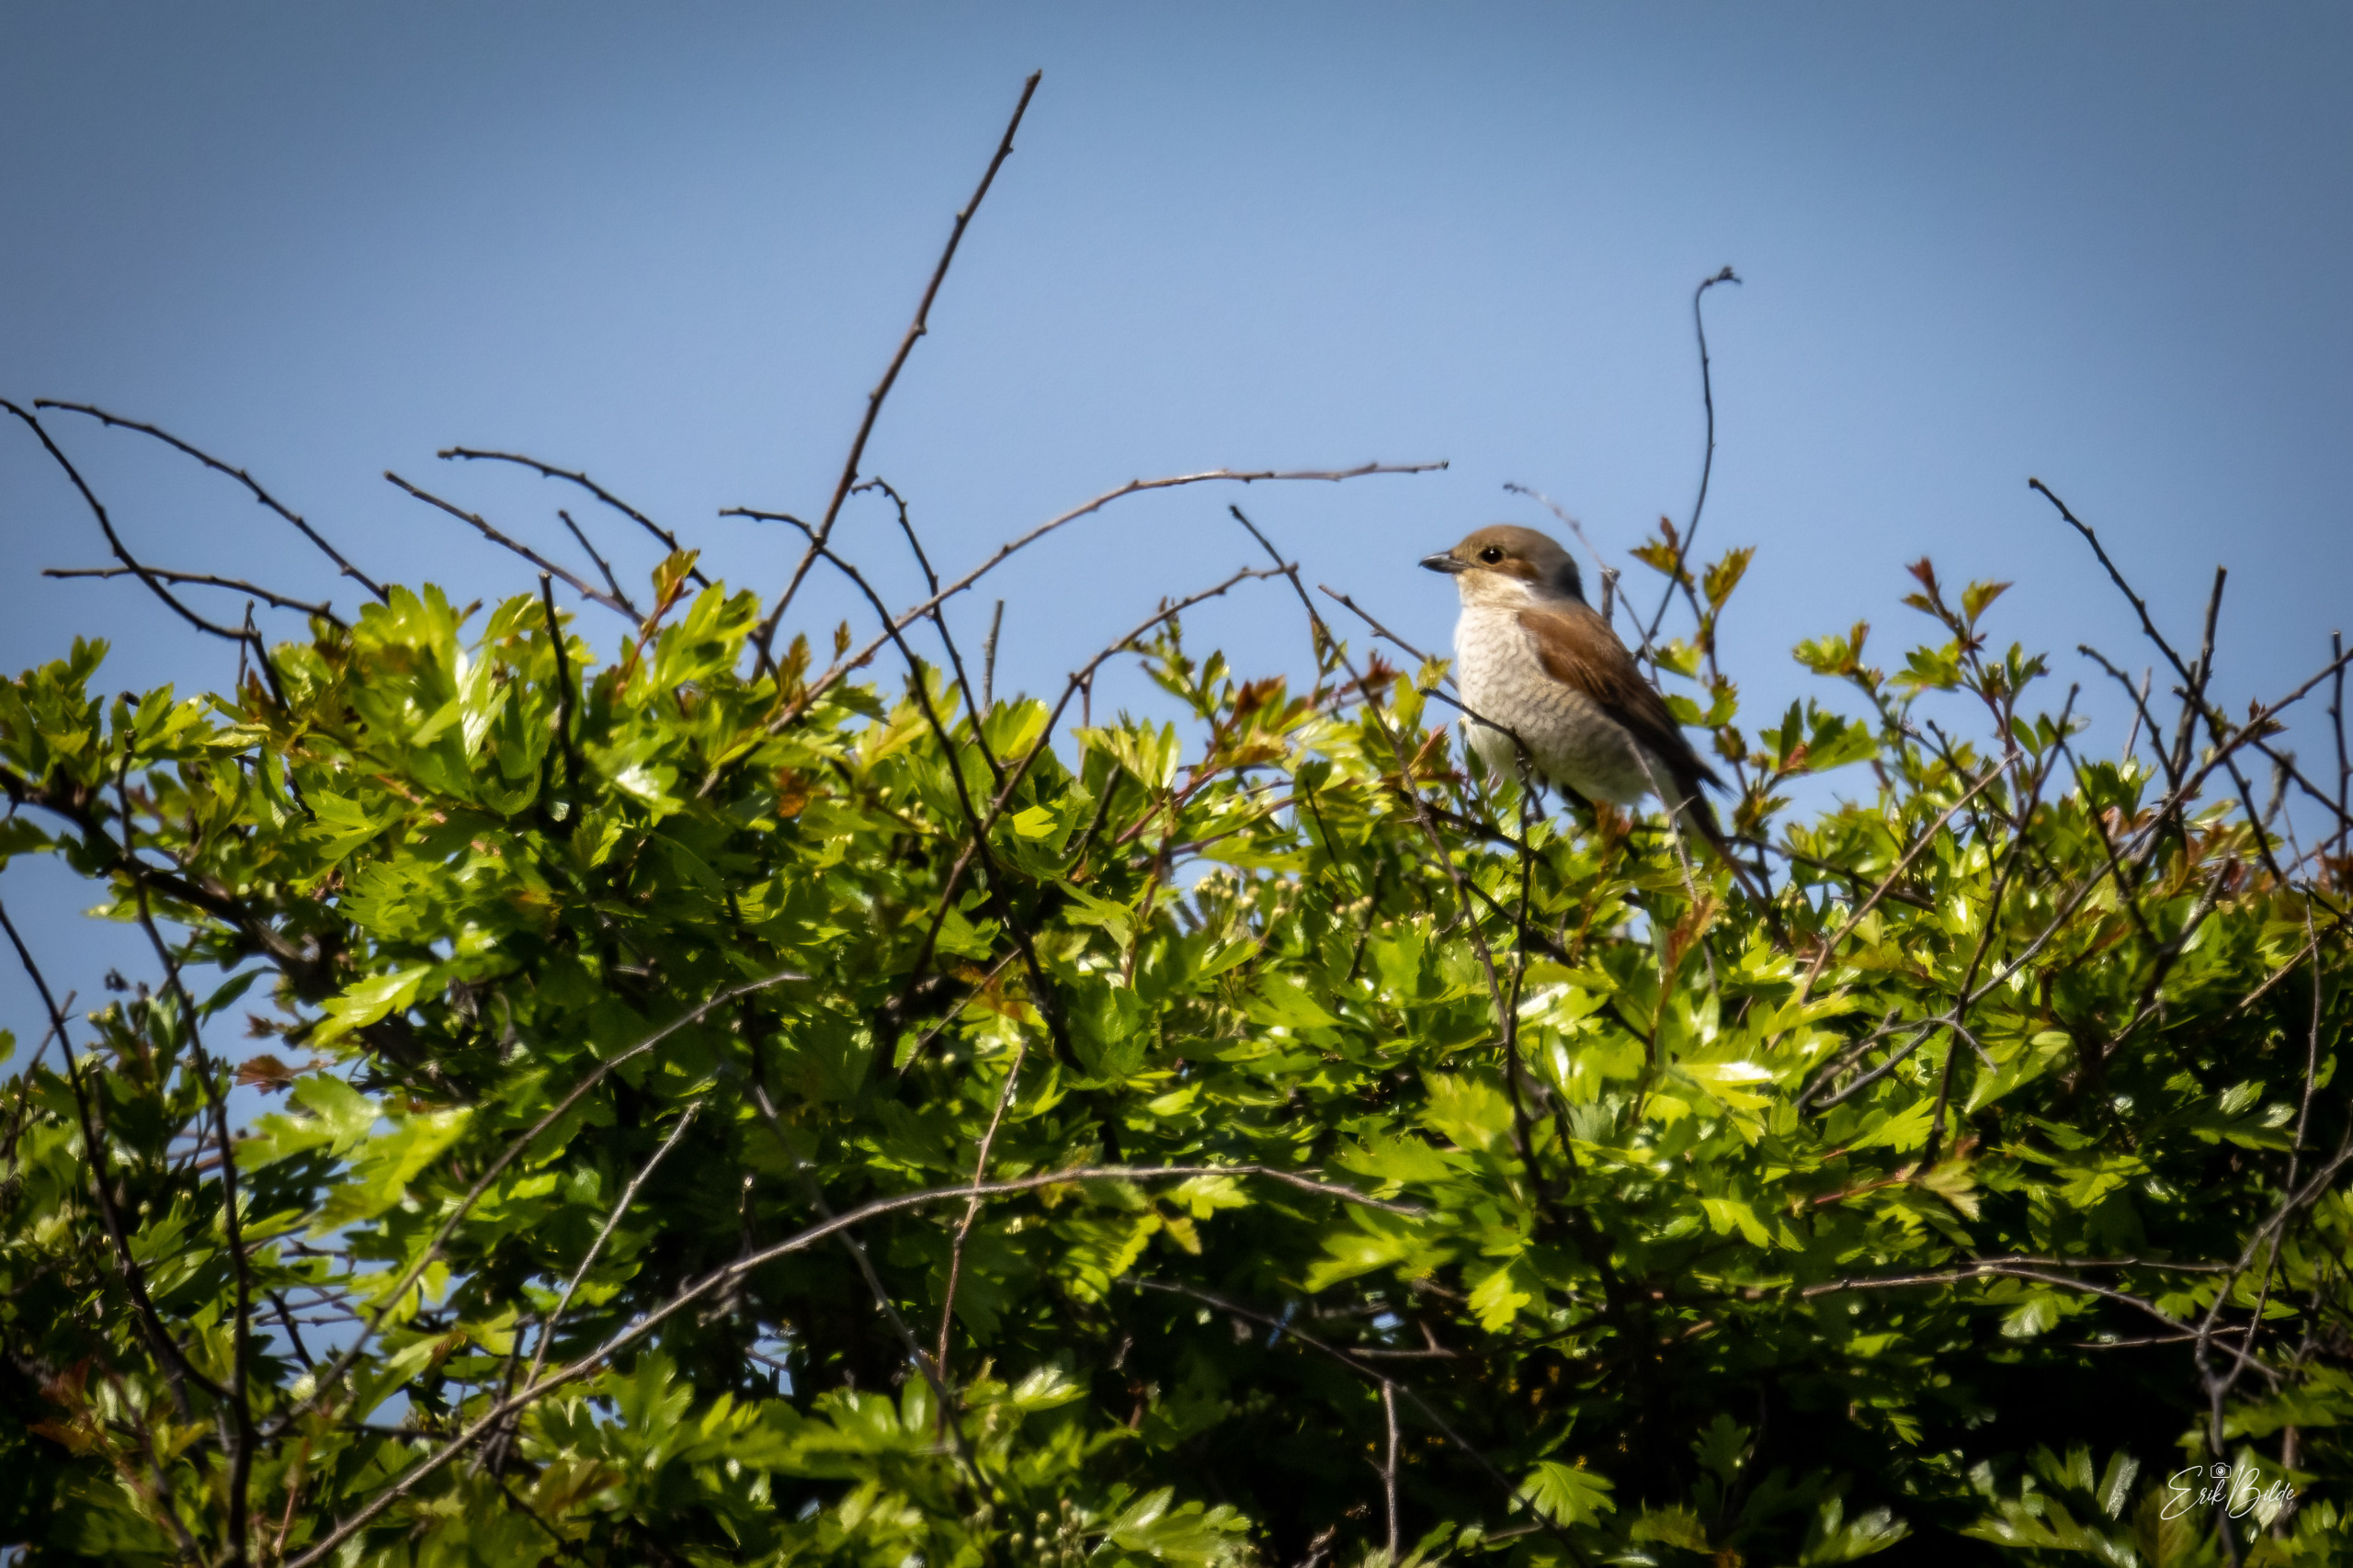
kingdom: Animalia
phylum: Chordata
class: Aves
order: Passeriformes
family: Laniidae
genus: Lanius
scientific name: Lanius collurio
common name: Rødrygget tornskade
